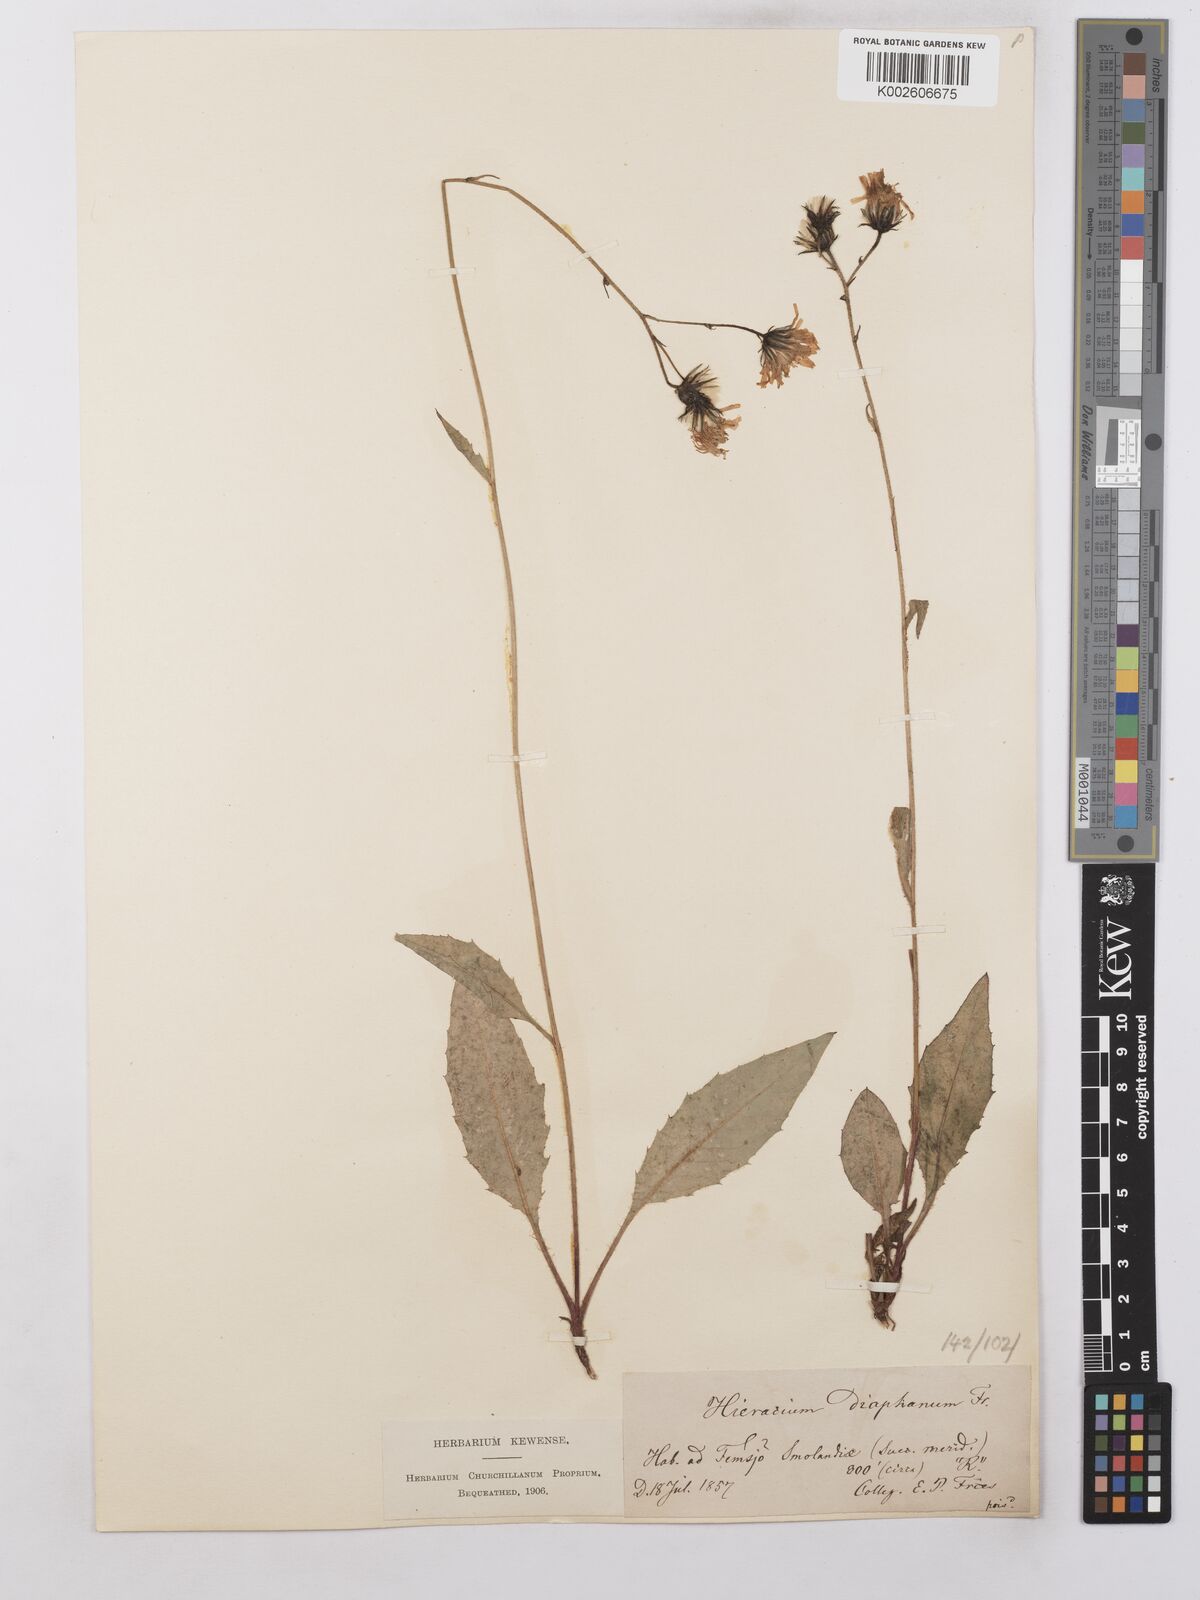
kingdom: Plantae
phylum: Tracheophyta
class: Magnoliopsida
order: Asterales
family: Asteraceae
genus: Hieracium
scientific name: Hieracium lachenalii
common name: Common hawkweed
